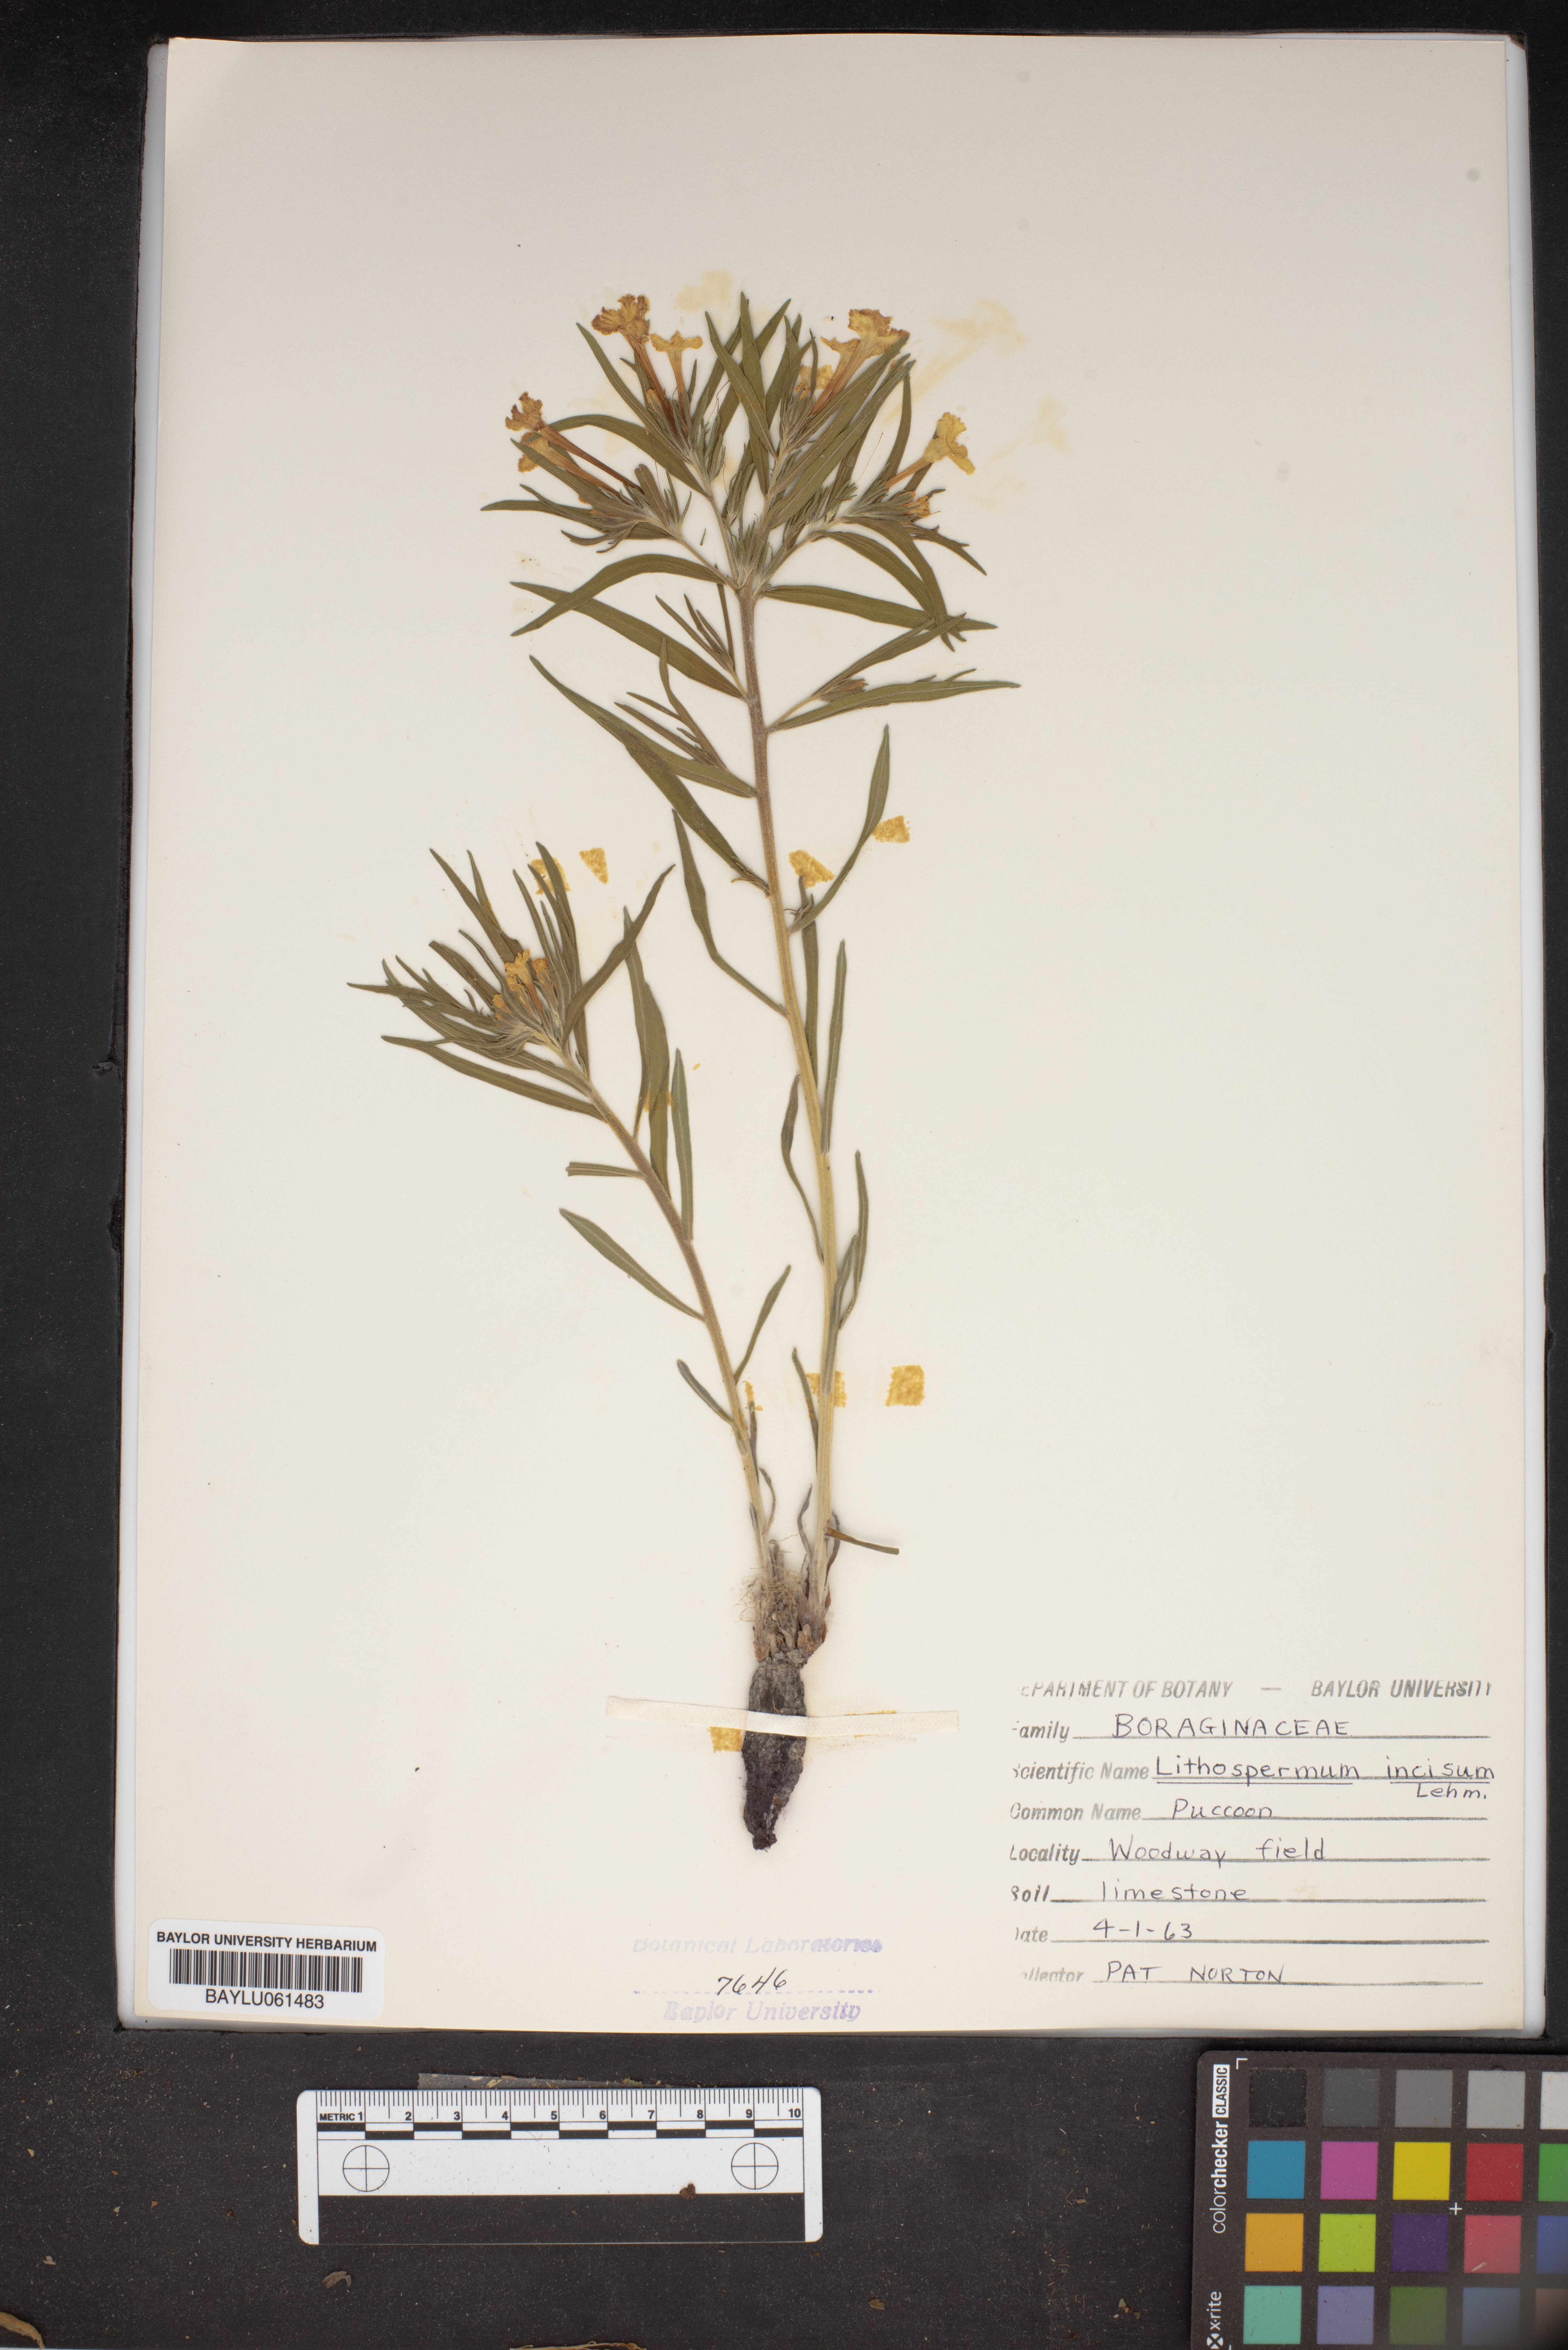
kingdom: Plantae
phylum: Tracheophyta
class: Magnoliopsida
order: Boraginales
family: Boraginaceae
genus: Lithospermum
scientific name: Lithospermum incisum
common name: Fringed gromwell
